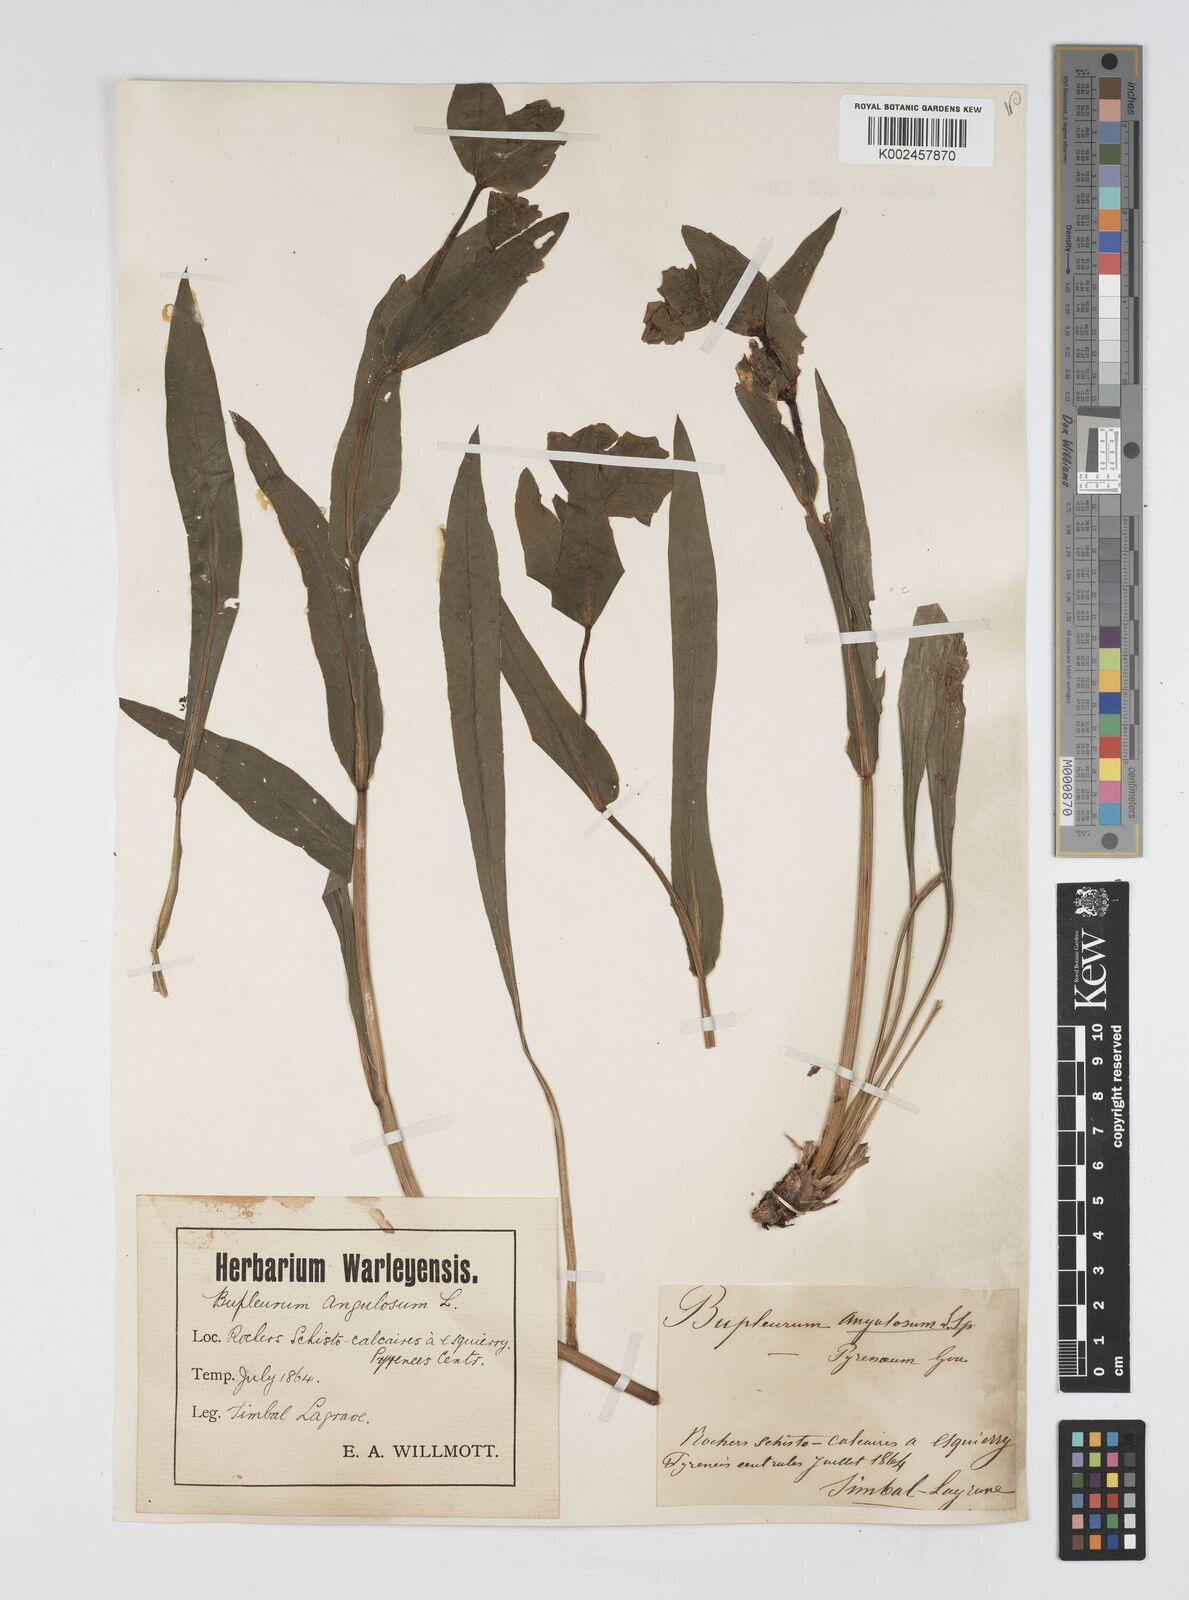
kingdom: Plantae
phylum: Tracheophyta
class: Magnoliopsida
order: Apiales
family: Apiaceae
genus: Bupleurum
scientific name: Bupleurum angulosum
